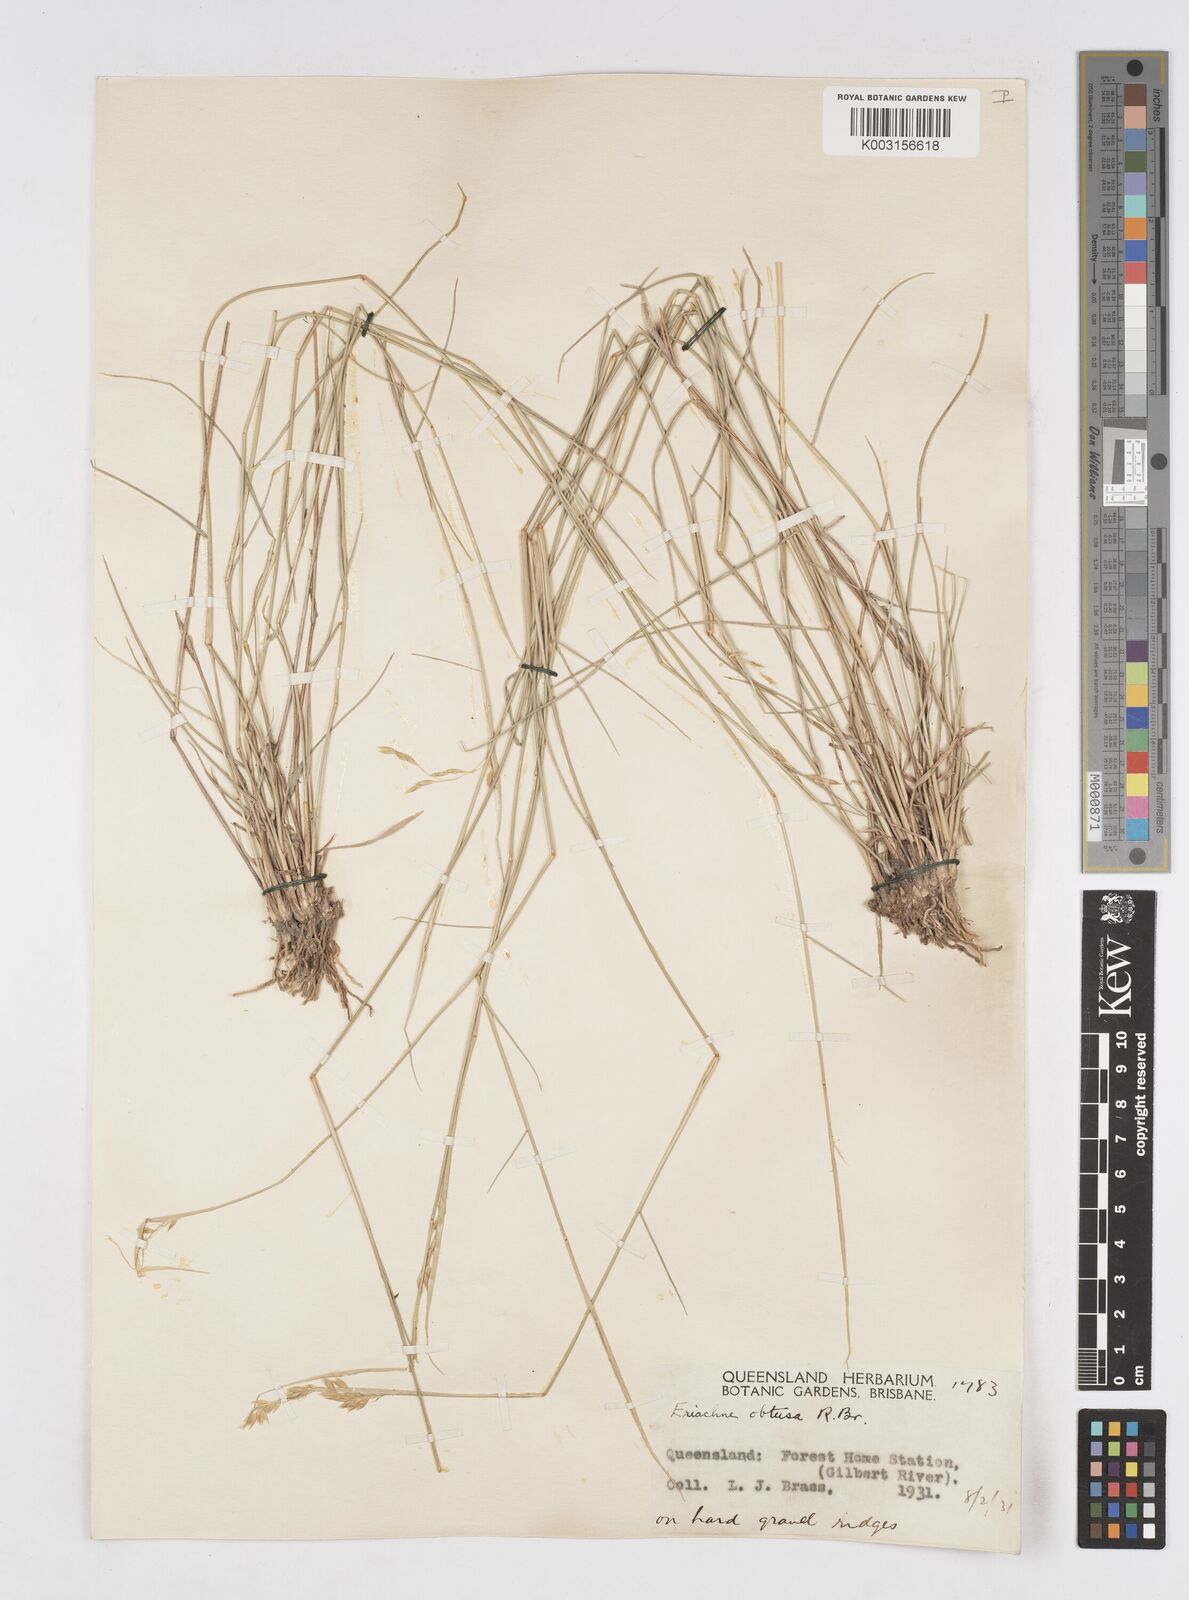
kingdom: Plantae
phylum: Tracheophyta
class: Liliopsida
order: Poales
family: Poaceae
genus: Eriachne
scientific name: Eriachne obtusa
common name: Northern wanderrie grass
